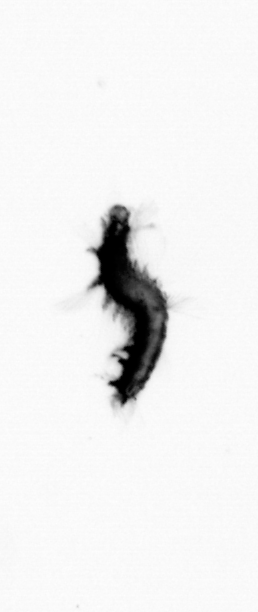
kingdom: Animalia
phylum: Annelida
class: Polychaeta
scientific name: Polychaeta
